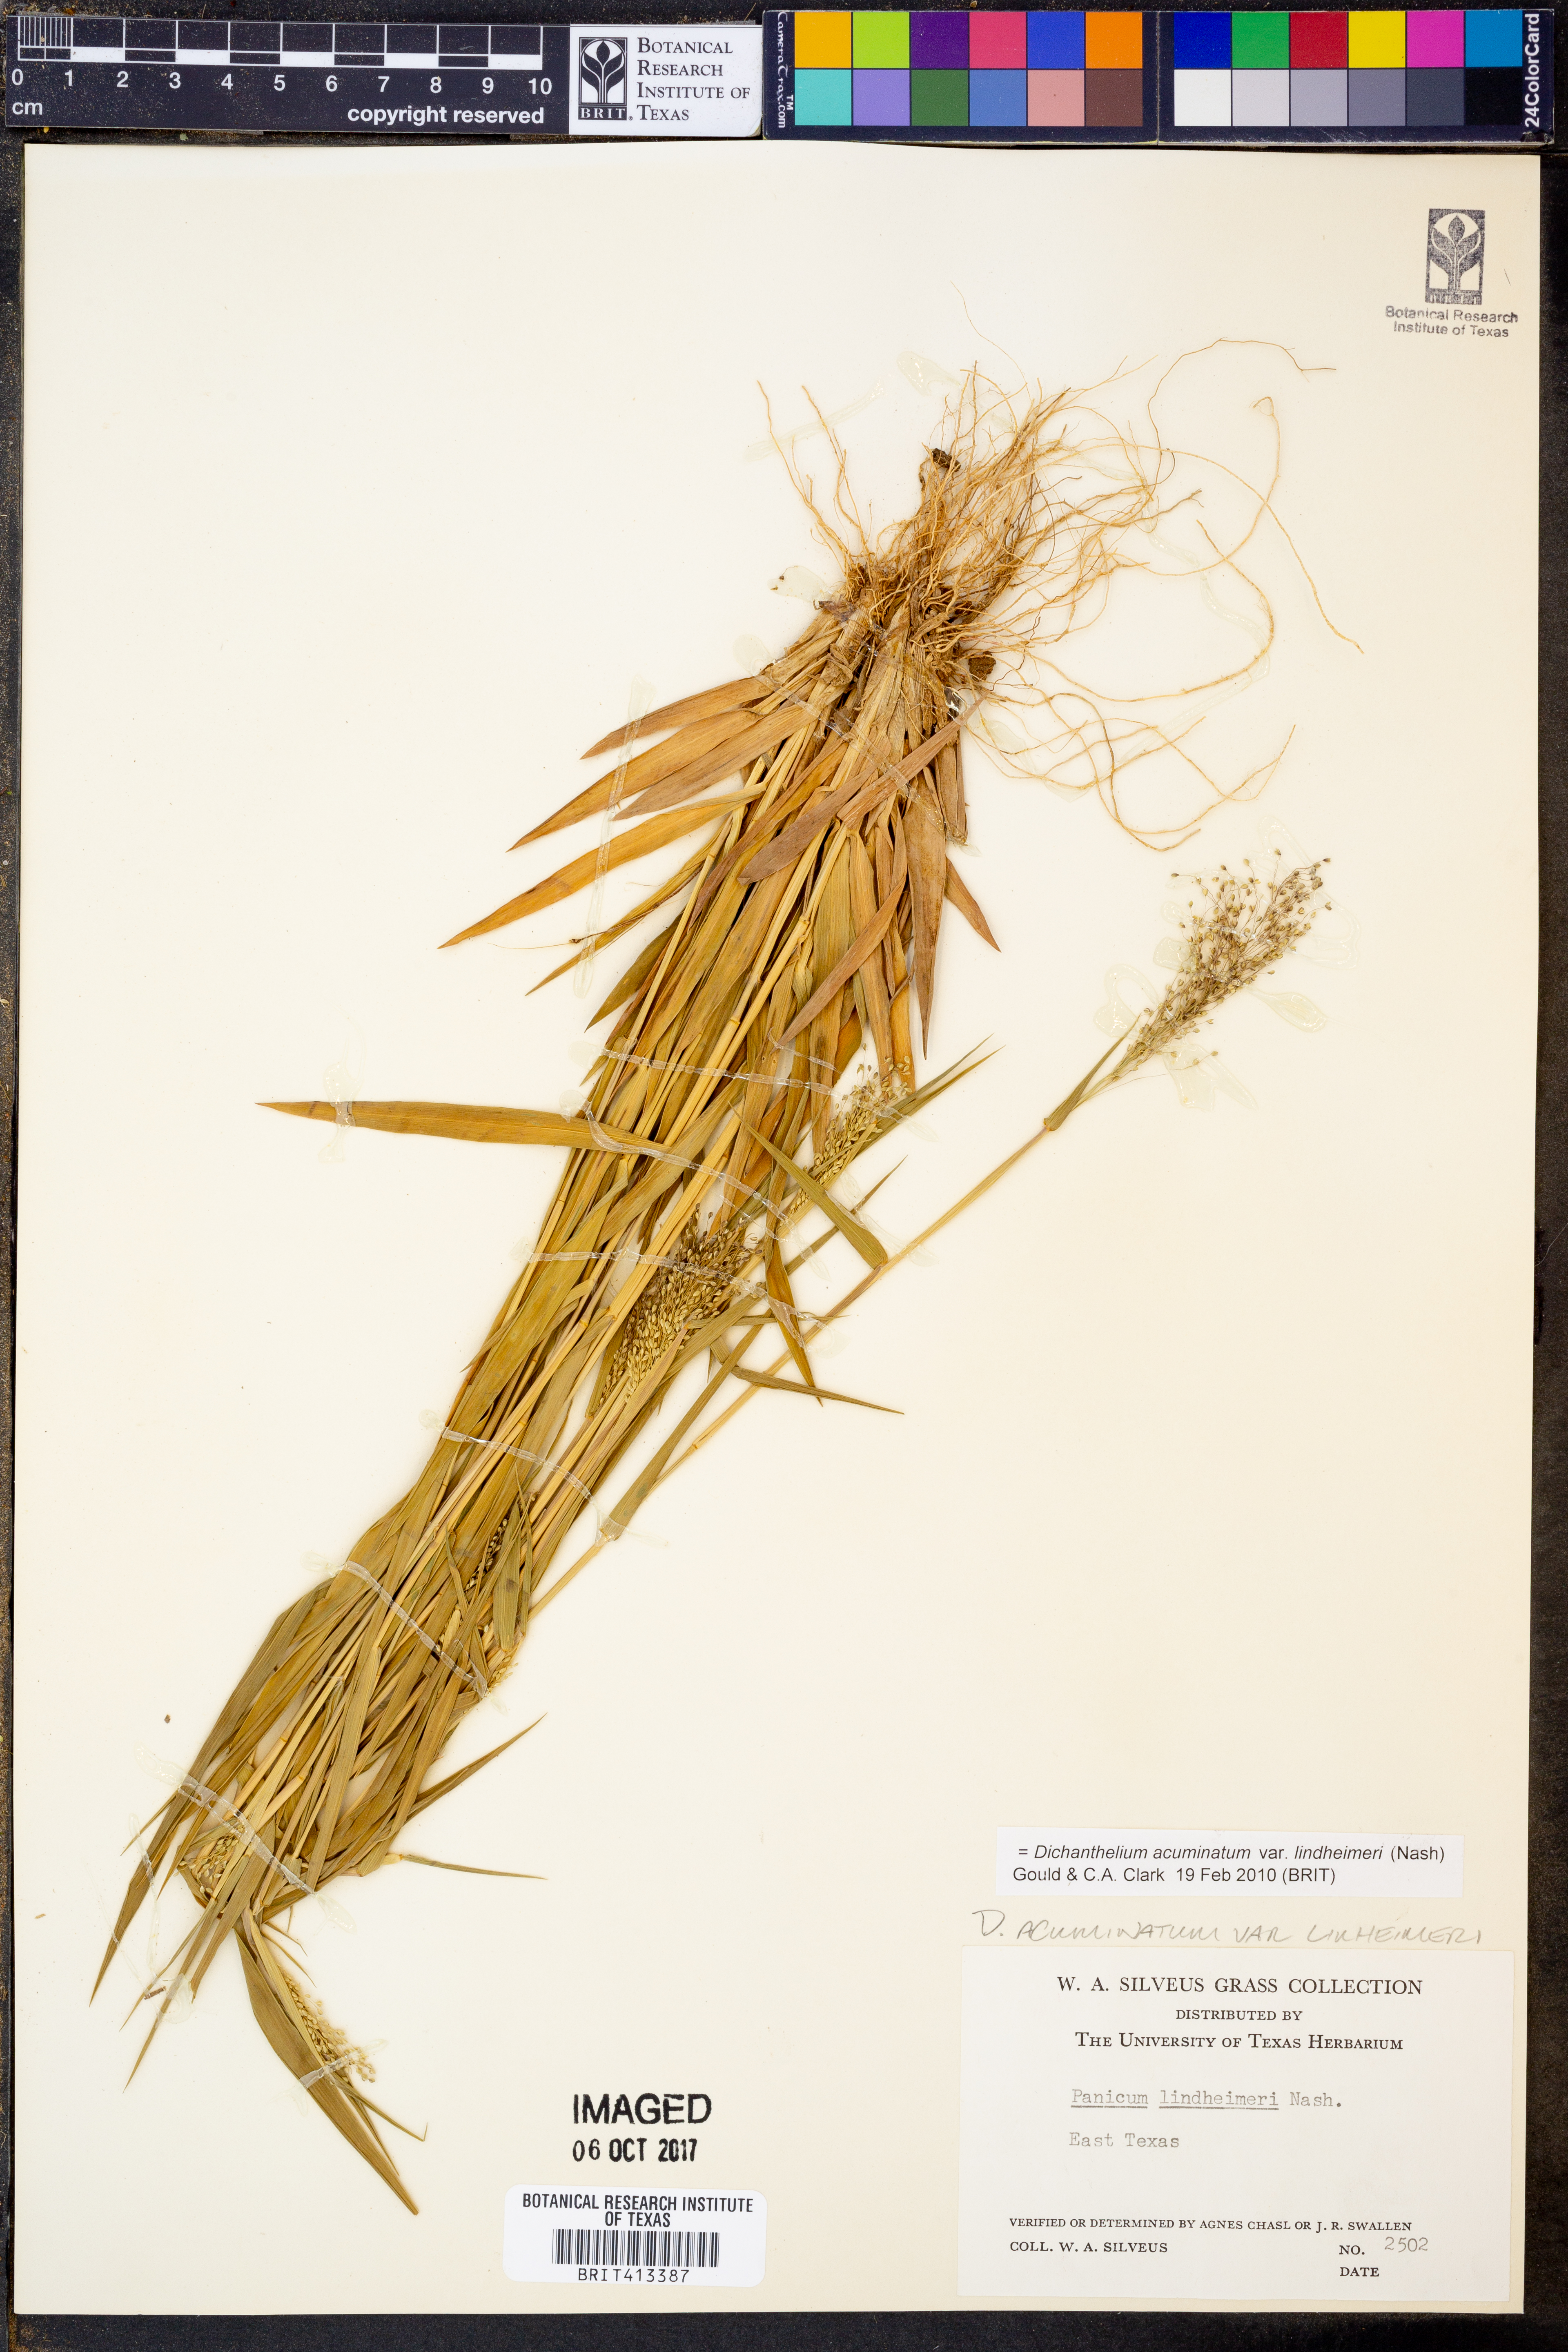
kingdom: Plantae
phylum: Tracheophyta
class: Liliopsida
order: Poales
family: Poaceae
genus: Dichanthelium
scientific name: Dichanthelium lindheimeri
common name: Lindheimer's panicgrass
